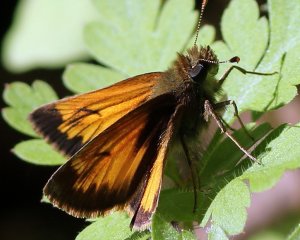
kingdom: Animalia
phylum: Arthropoda
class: Insecta
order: Lepidoptera
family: Hesperiidae
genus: Lon
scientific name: Lon hobomok
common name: Hobomok Skipper
